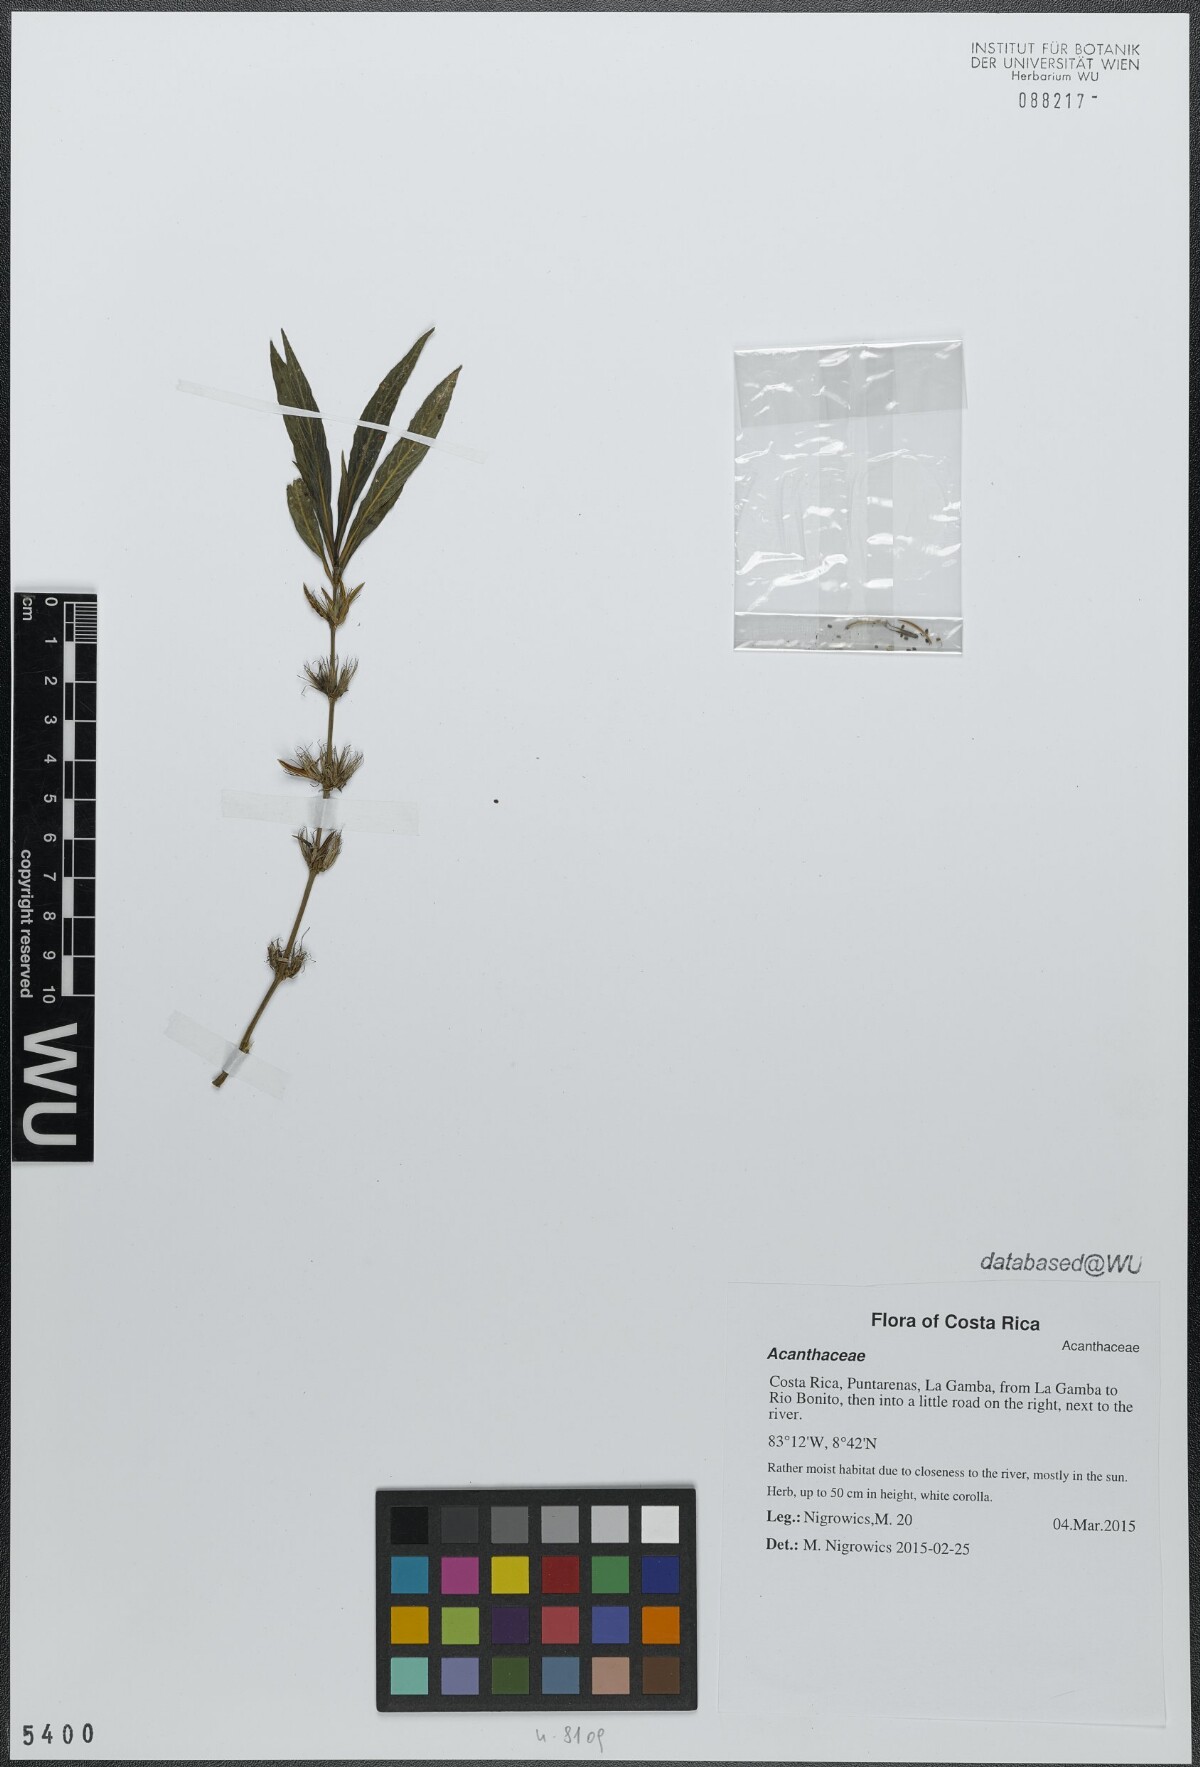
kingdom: Plantae
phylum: Tracheophyta
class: Magnoliopsida
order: Lamiales
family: Acanthaceae
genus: Hygrophila
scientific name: Hygrophila costata
